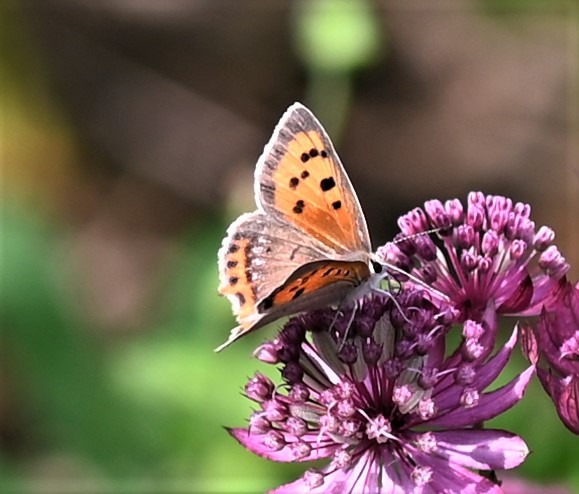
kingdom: Animalia
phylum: Arthropoda
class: Insecta
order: Lepidoptera
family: Lycaenidae
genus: Lycaena
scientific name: Lycaena phlaeas
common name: Lille ildfugl
